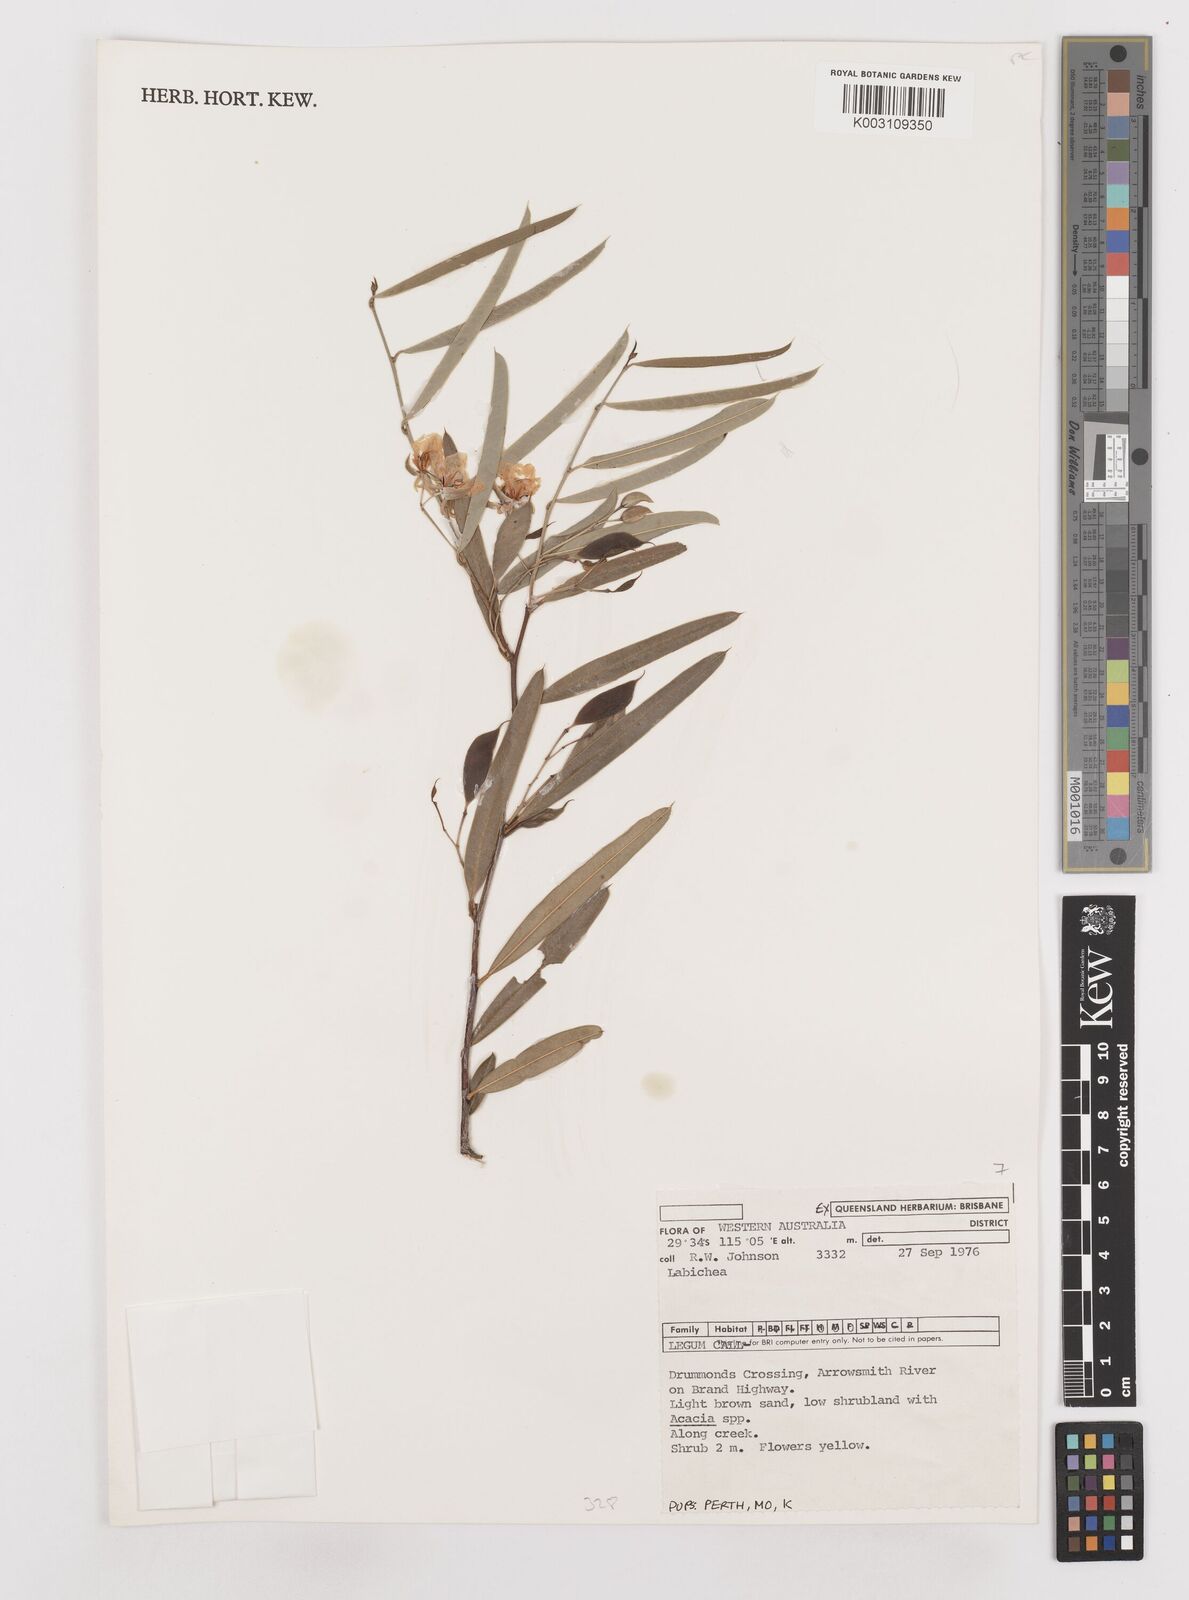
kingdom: Plantae
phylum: Tracheophyta
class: Magnoliopsida
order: Fabales
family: Fabaceae
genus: Labichea
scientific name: Labichea
